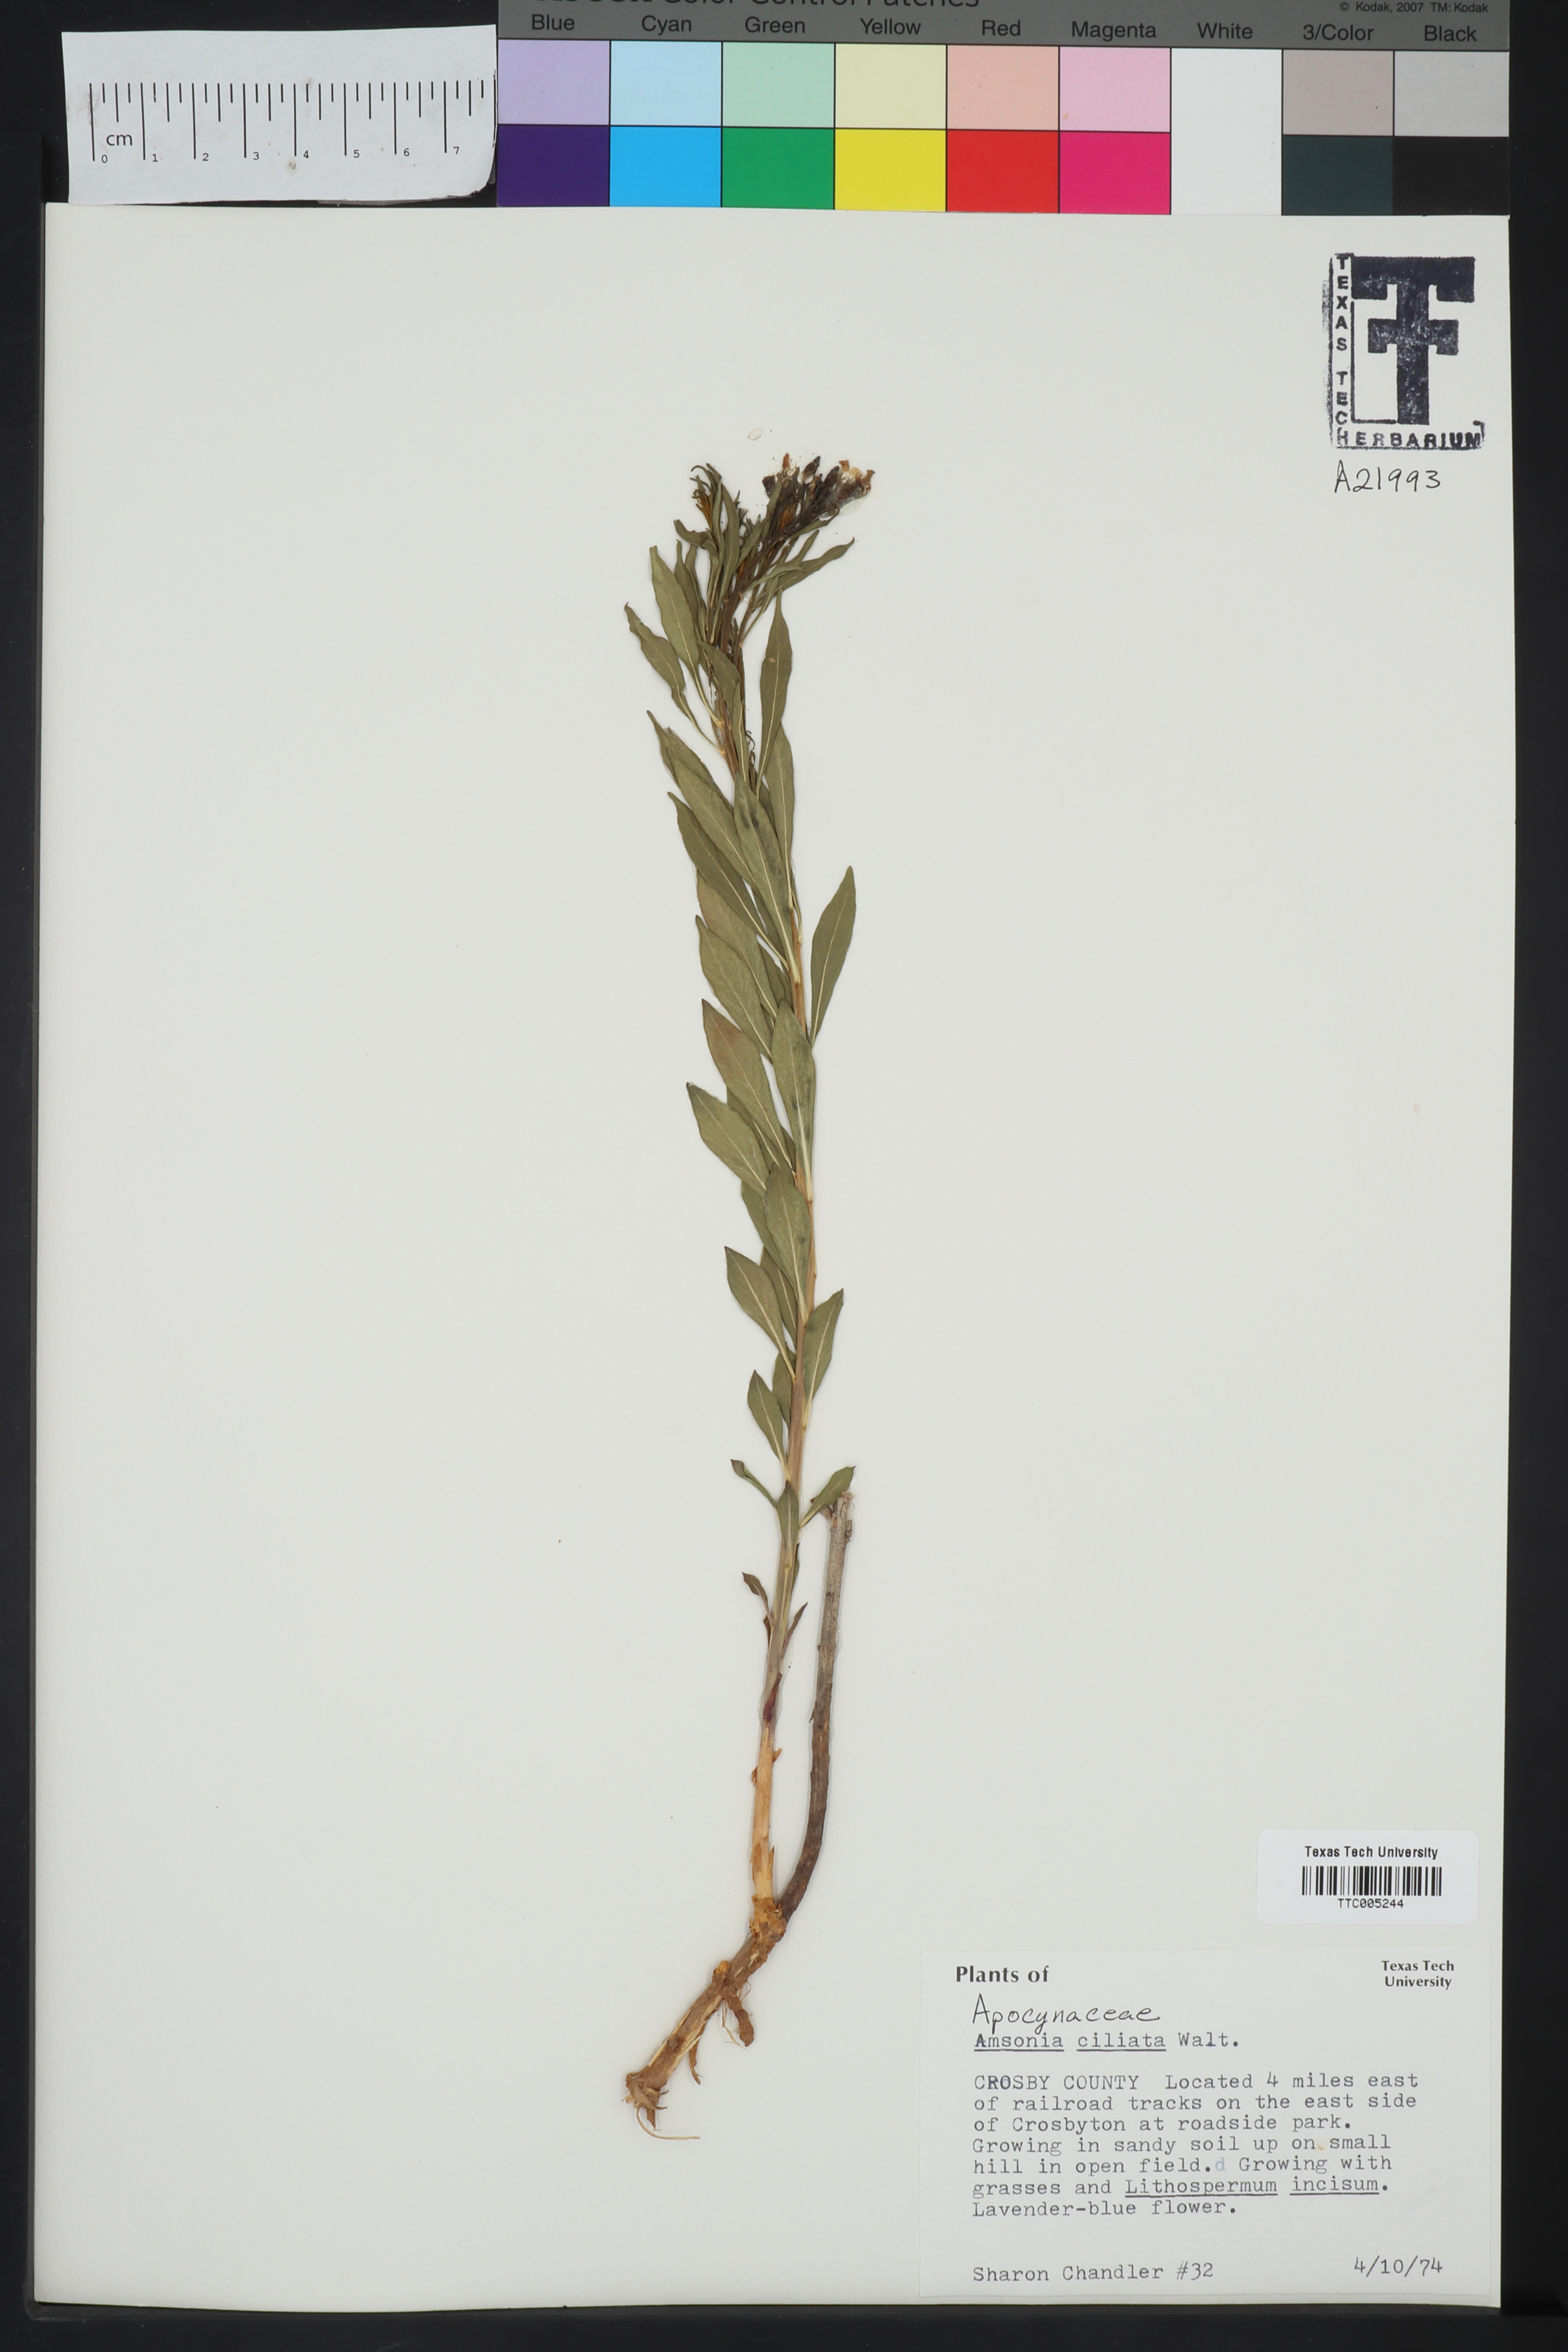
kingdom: Plantae
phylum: Tracheophyta
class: Magnoliopsida
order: Gentianales
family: Apocynaceae
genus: Amsonia
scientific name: Amsonia ciliata
